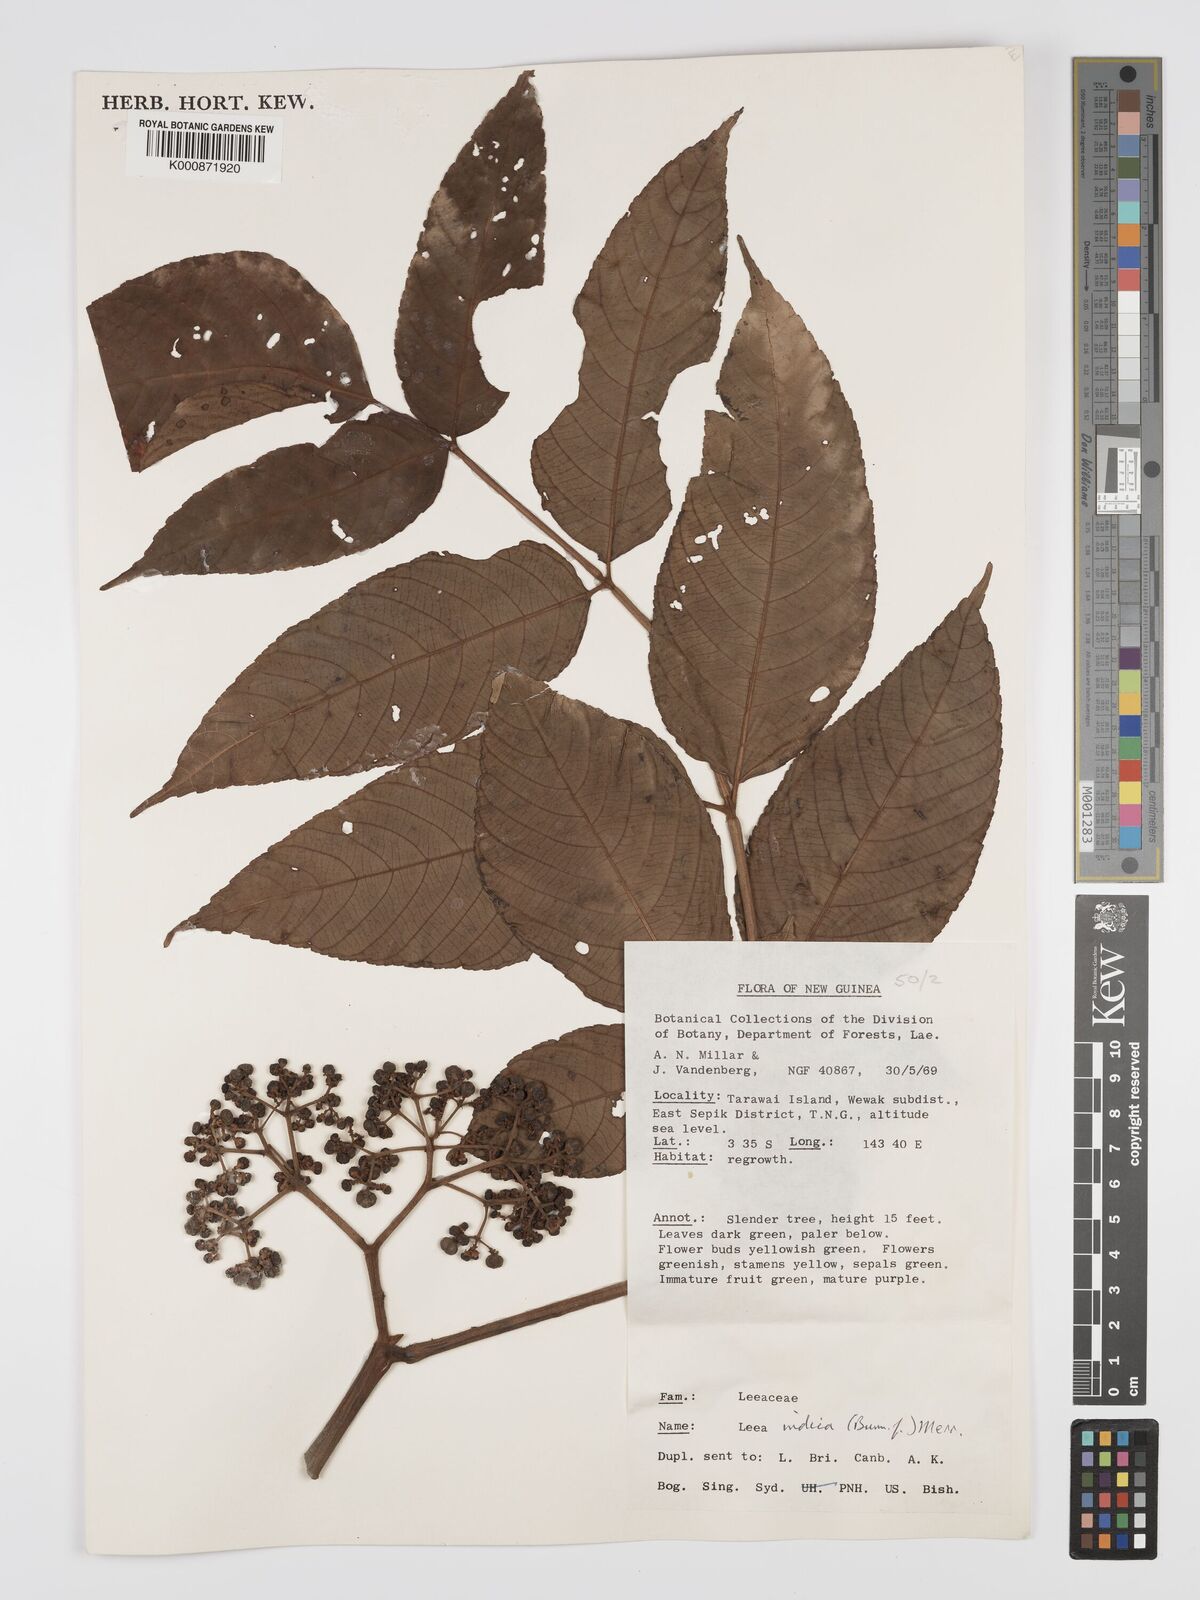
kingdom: Plantae
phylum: Tracheophyta
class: Magnoliopsida
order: Vitales
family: Vitaceae
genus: Leea
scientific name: Leea indica
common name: Bandicoot-berry
